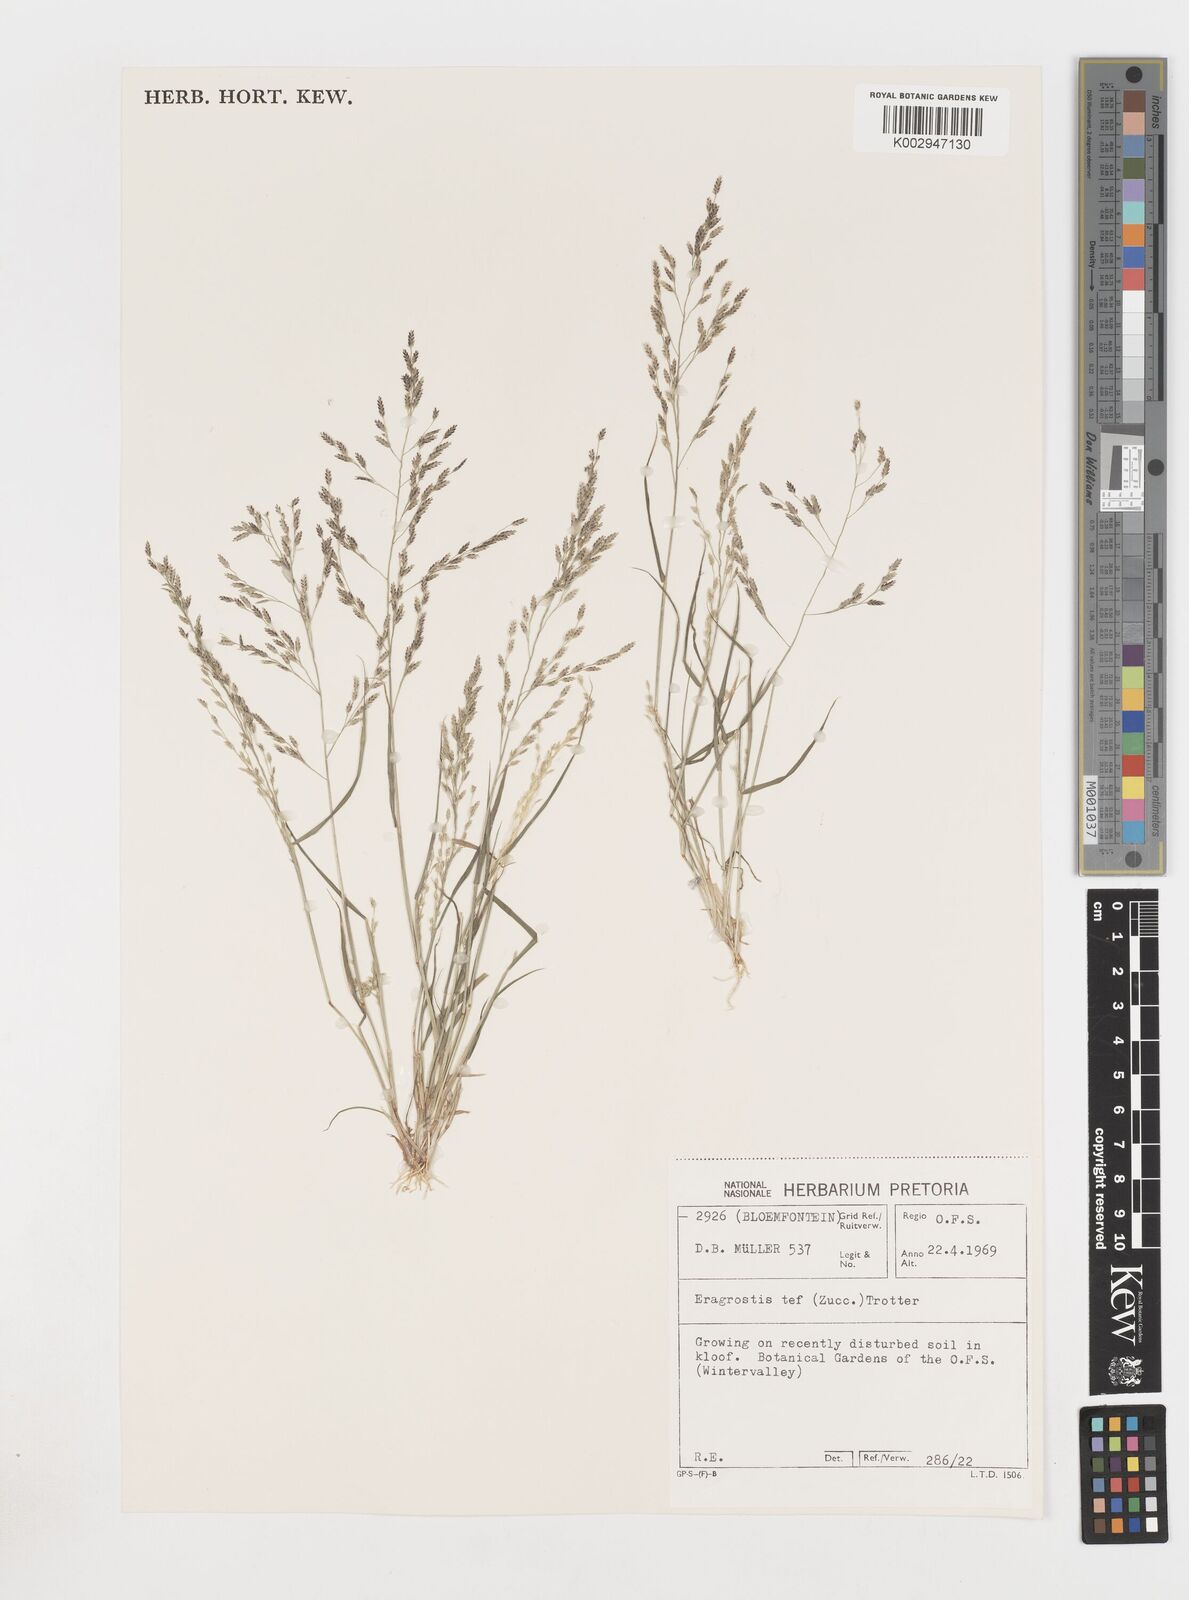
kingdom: Plantae
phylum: Tracheophyta
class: Liliopsida
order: Poales
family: Poaceae
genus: Eragrostis
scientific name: Eragrostis tef
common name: Teff
